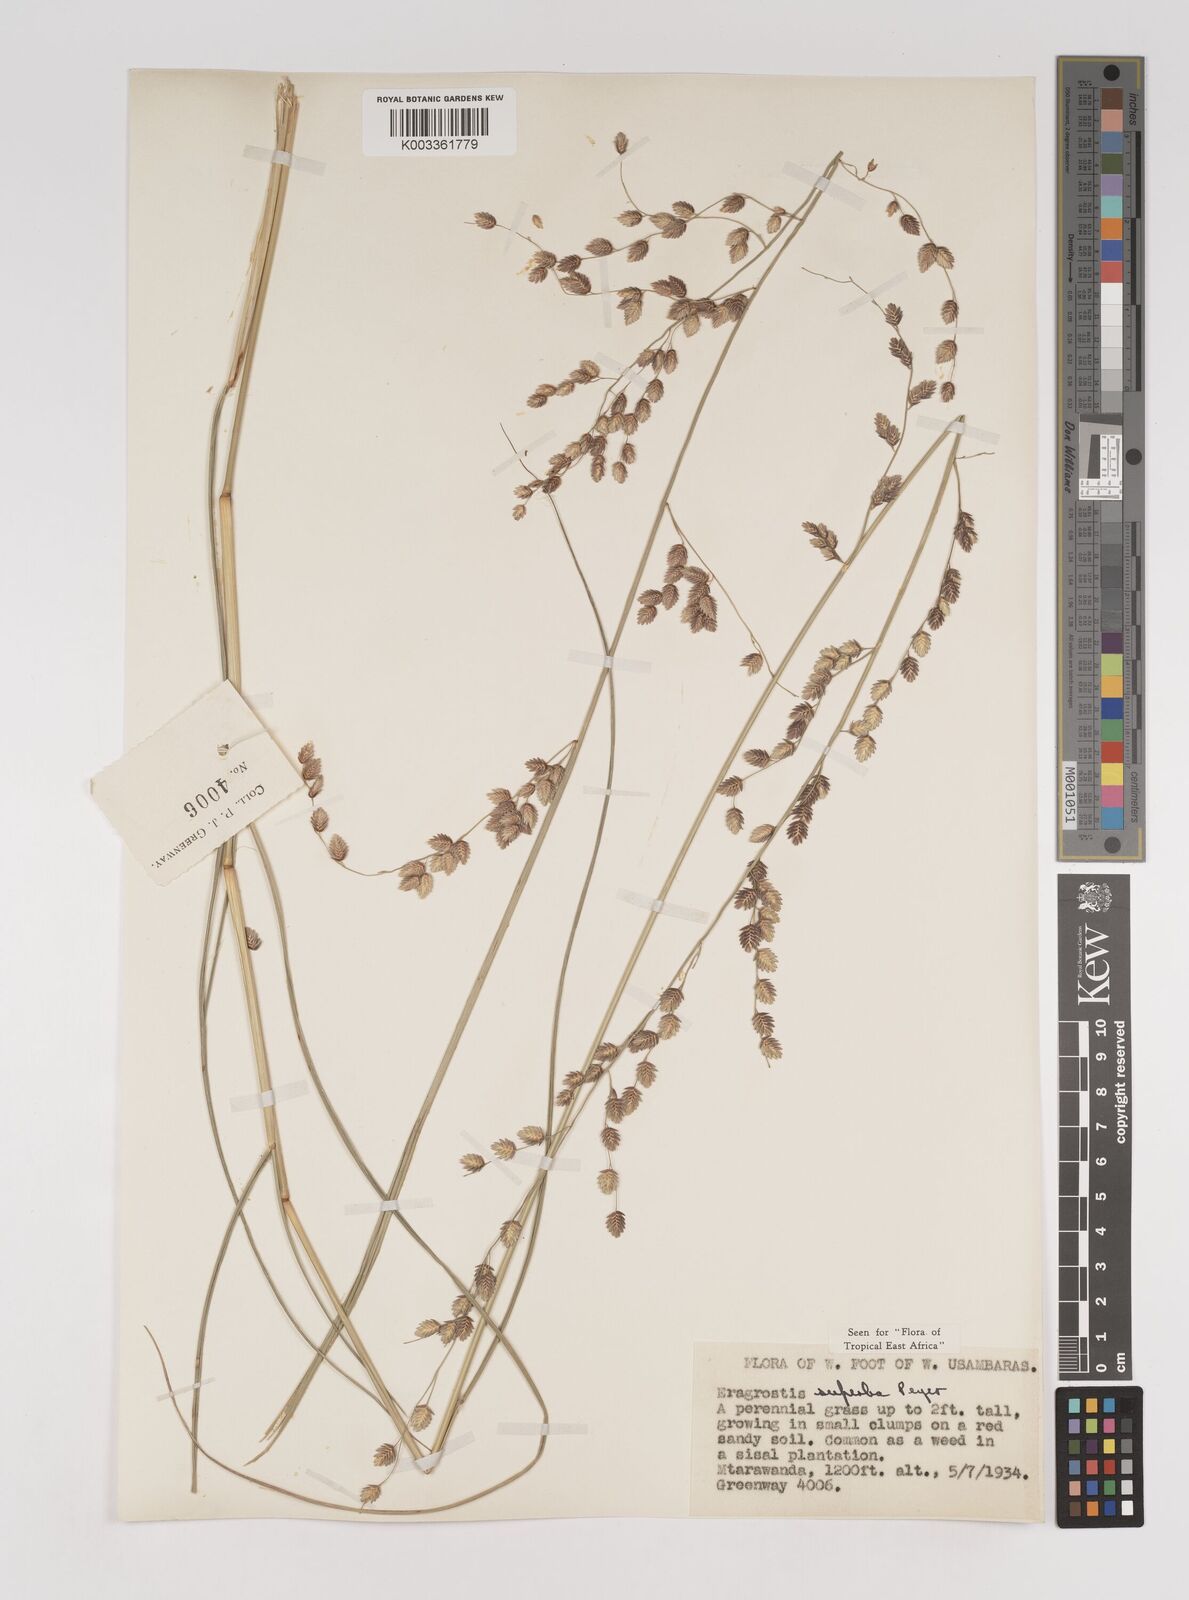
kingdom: Plantae
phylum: Tracheophyta
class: Liliopsida
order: Poales
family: Poaceae
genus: Eragrostis
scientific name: Eragrostis superba
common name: Wilman lovegrass
